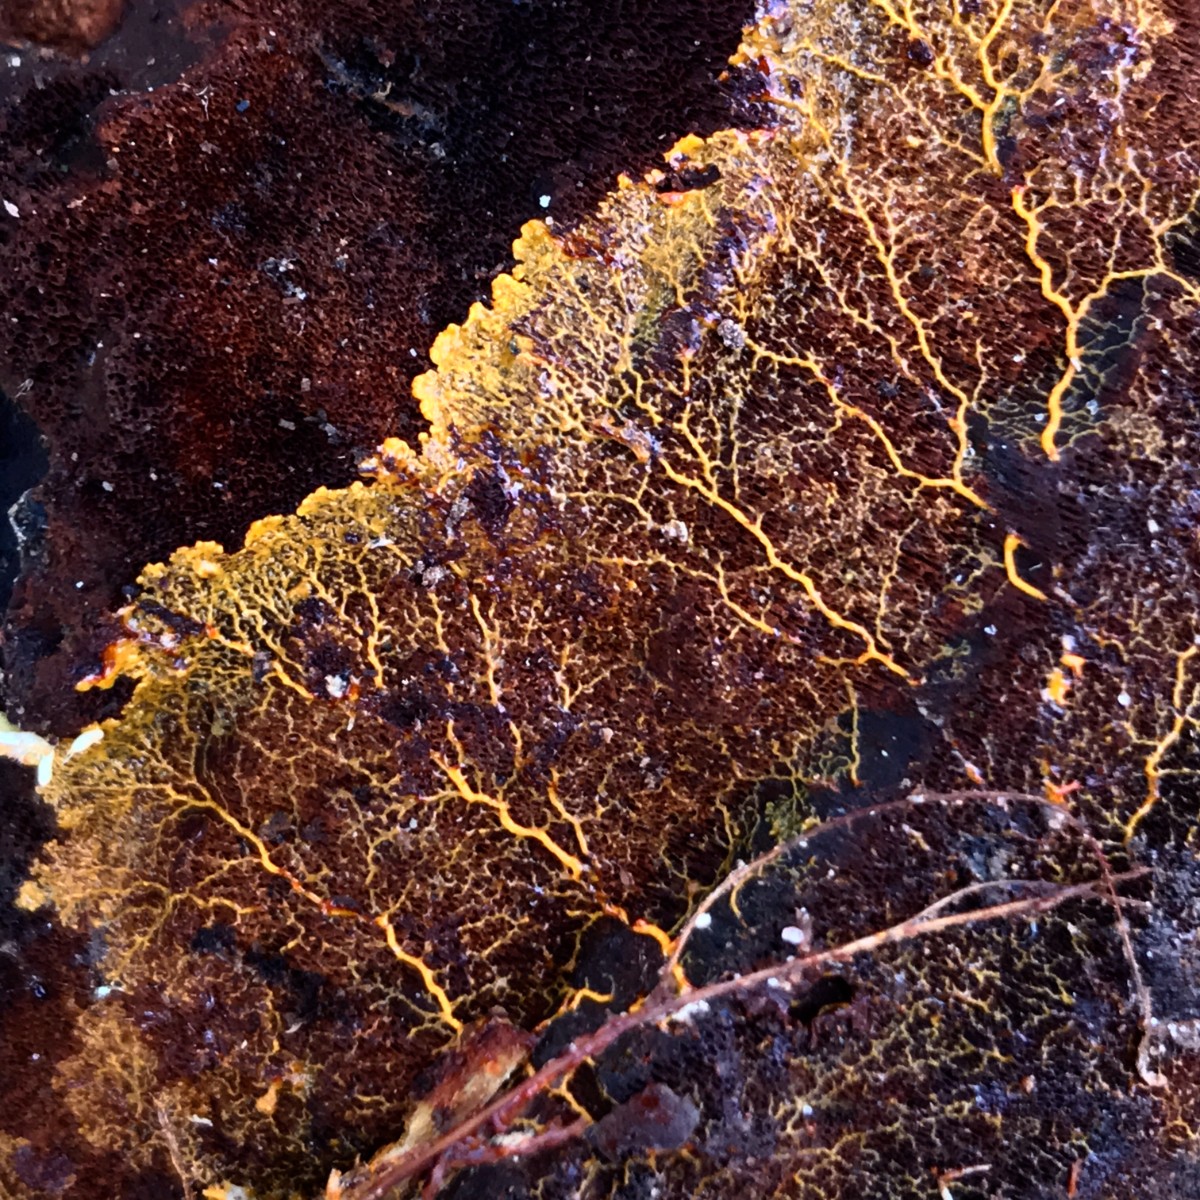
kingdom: Protozoa
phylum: Mycetozoa
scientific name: Mycetozoa
